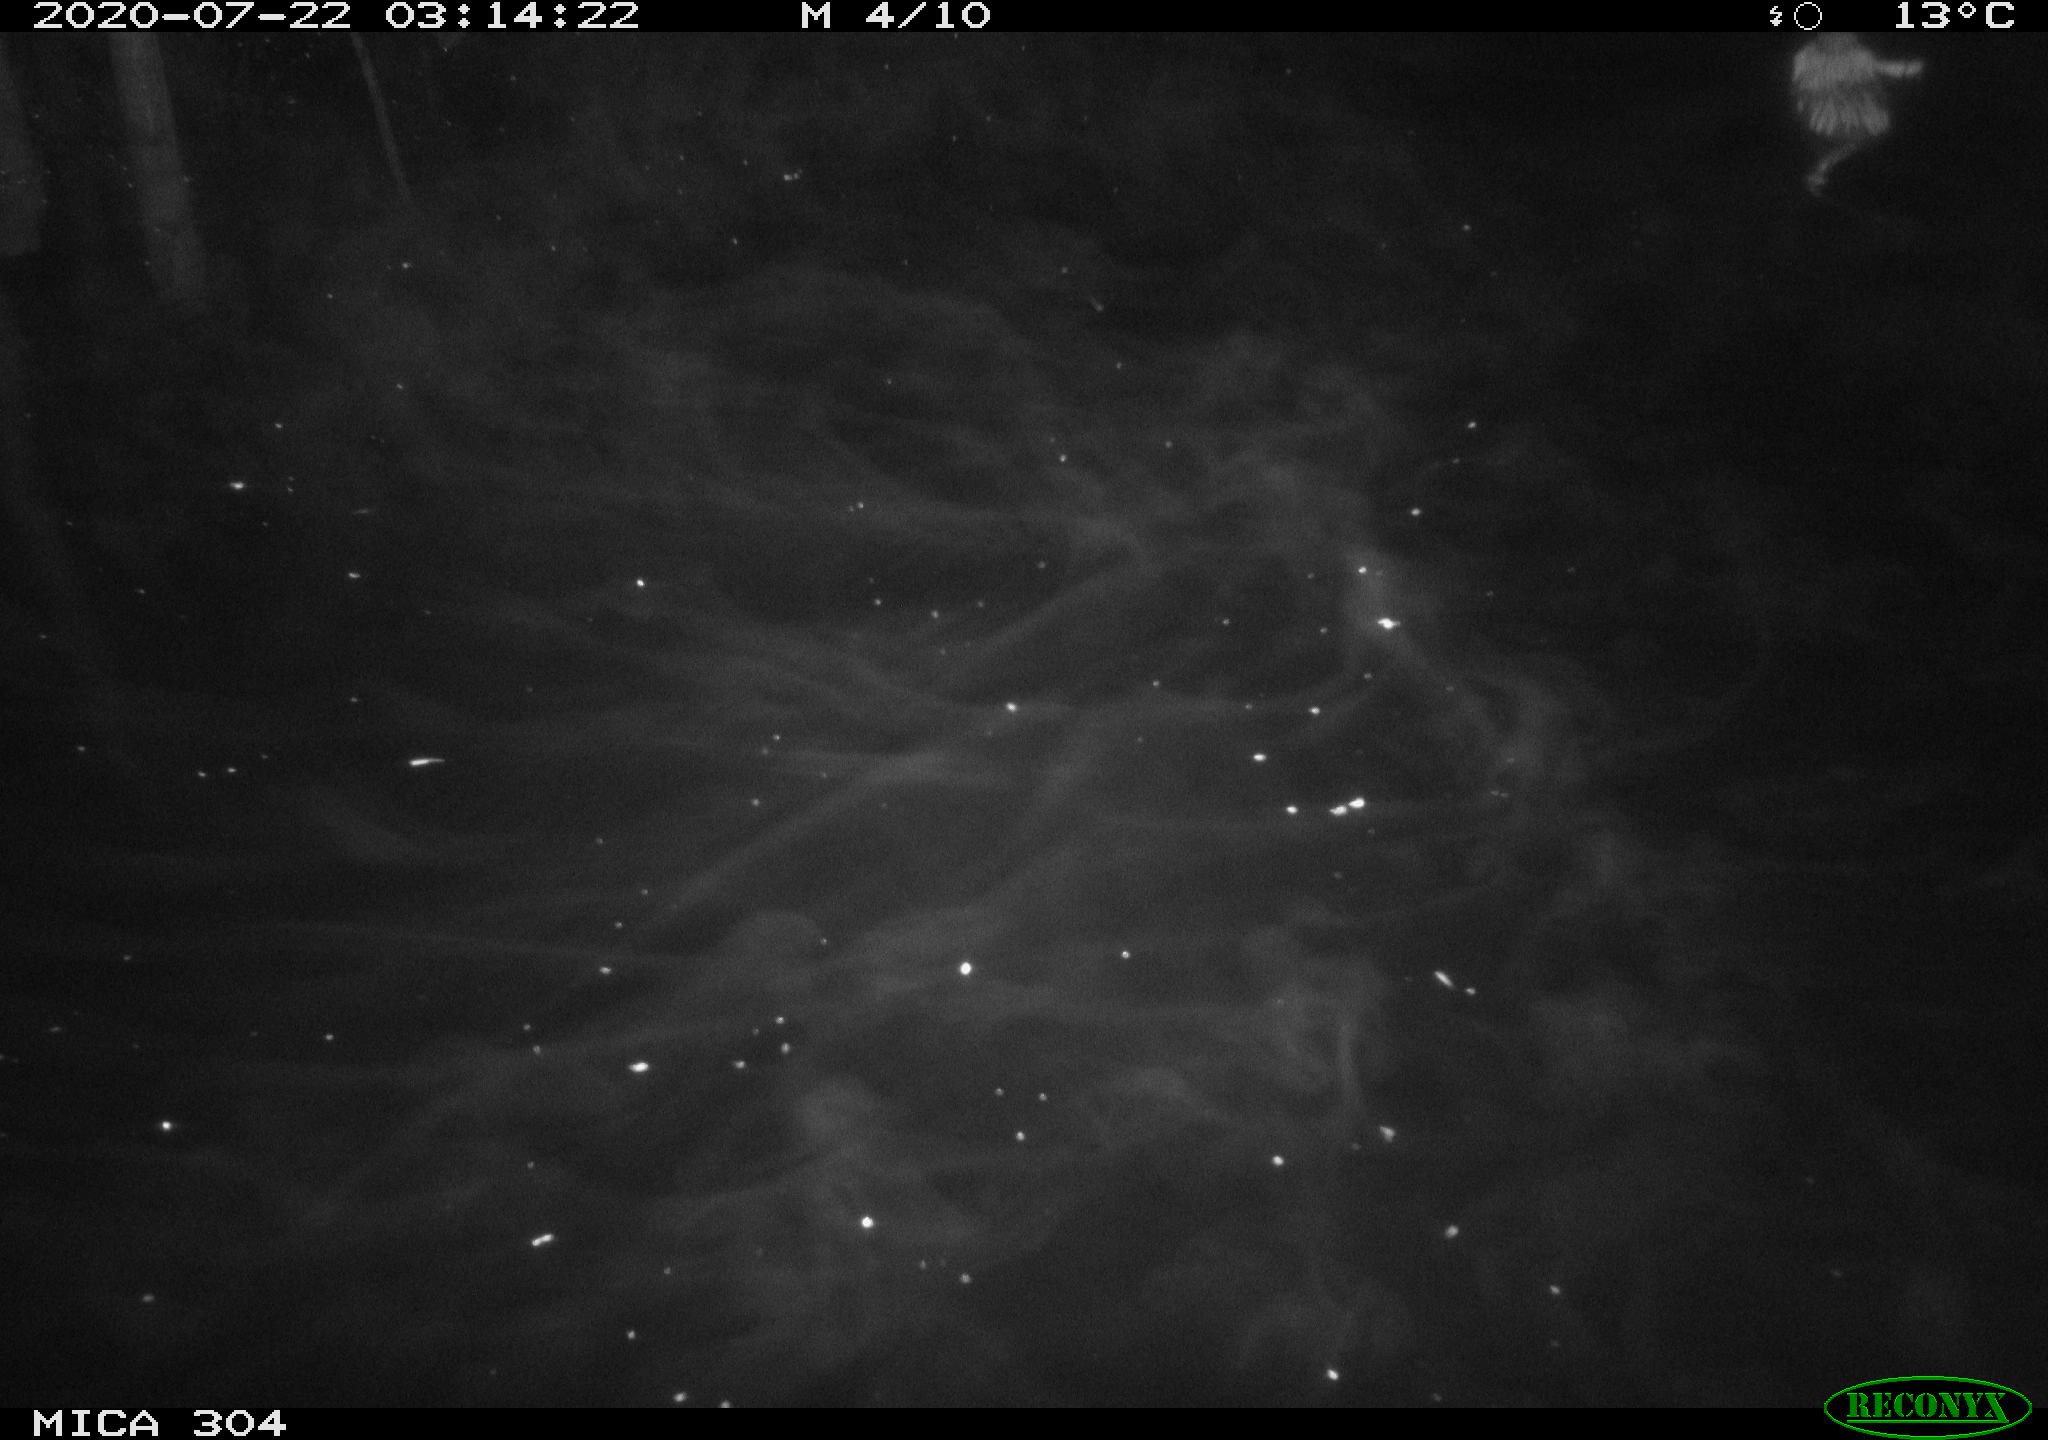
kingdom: Animalia
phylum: Chordata
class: Mammalia
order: Rodentia
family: Cricetidae
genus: Ondatra
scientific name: Ondatra zibethicus
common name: Muskrat
